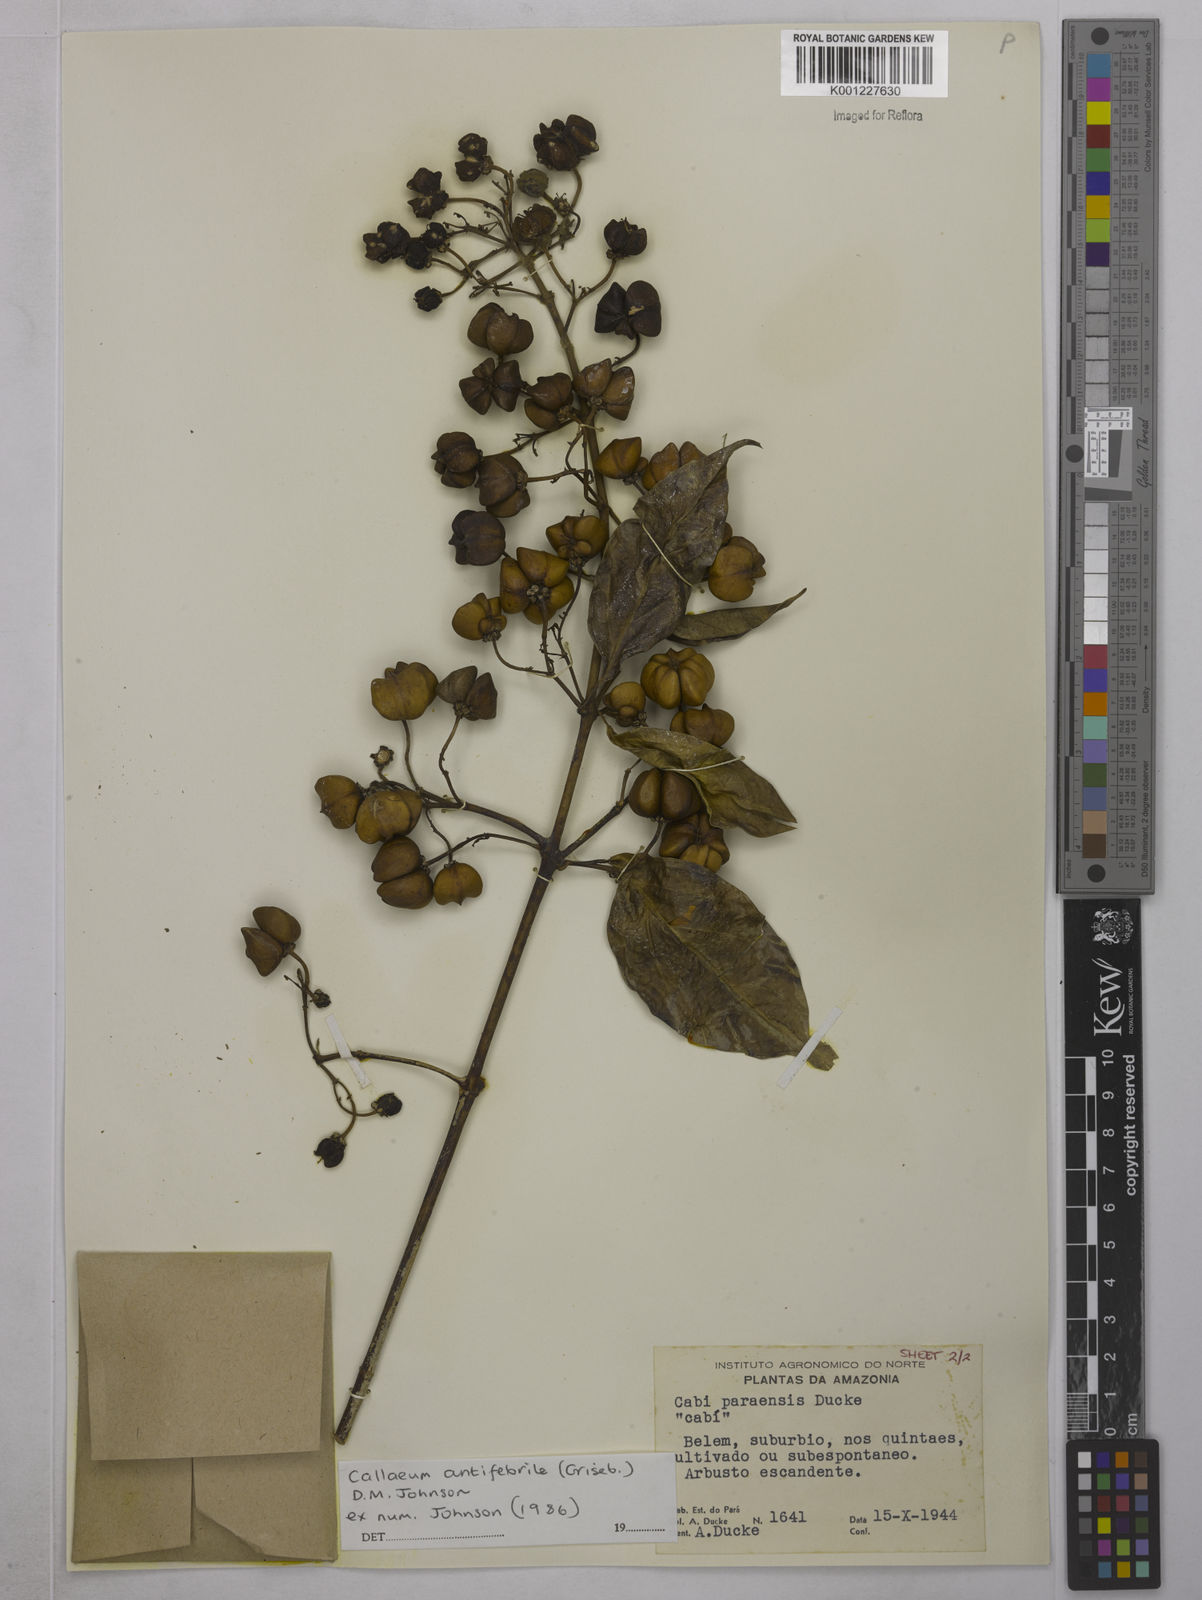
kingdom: Plantae
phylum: Tracheophyta
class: Magnoliopsida
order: Malpighiales
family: Malpighiaceae
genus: Callaeum
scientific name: Callaeum antifebrile
